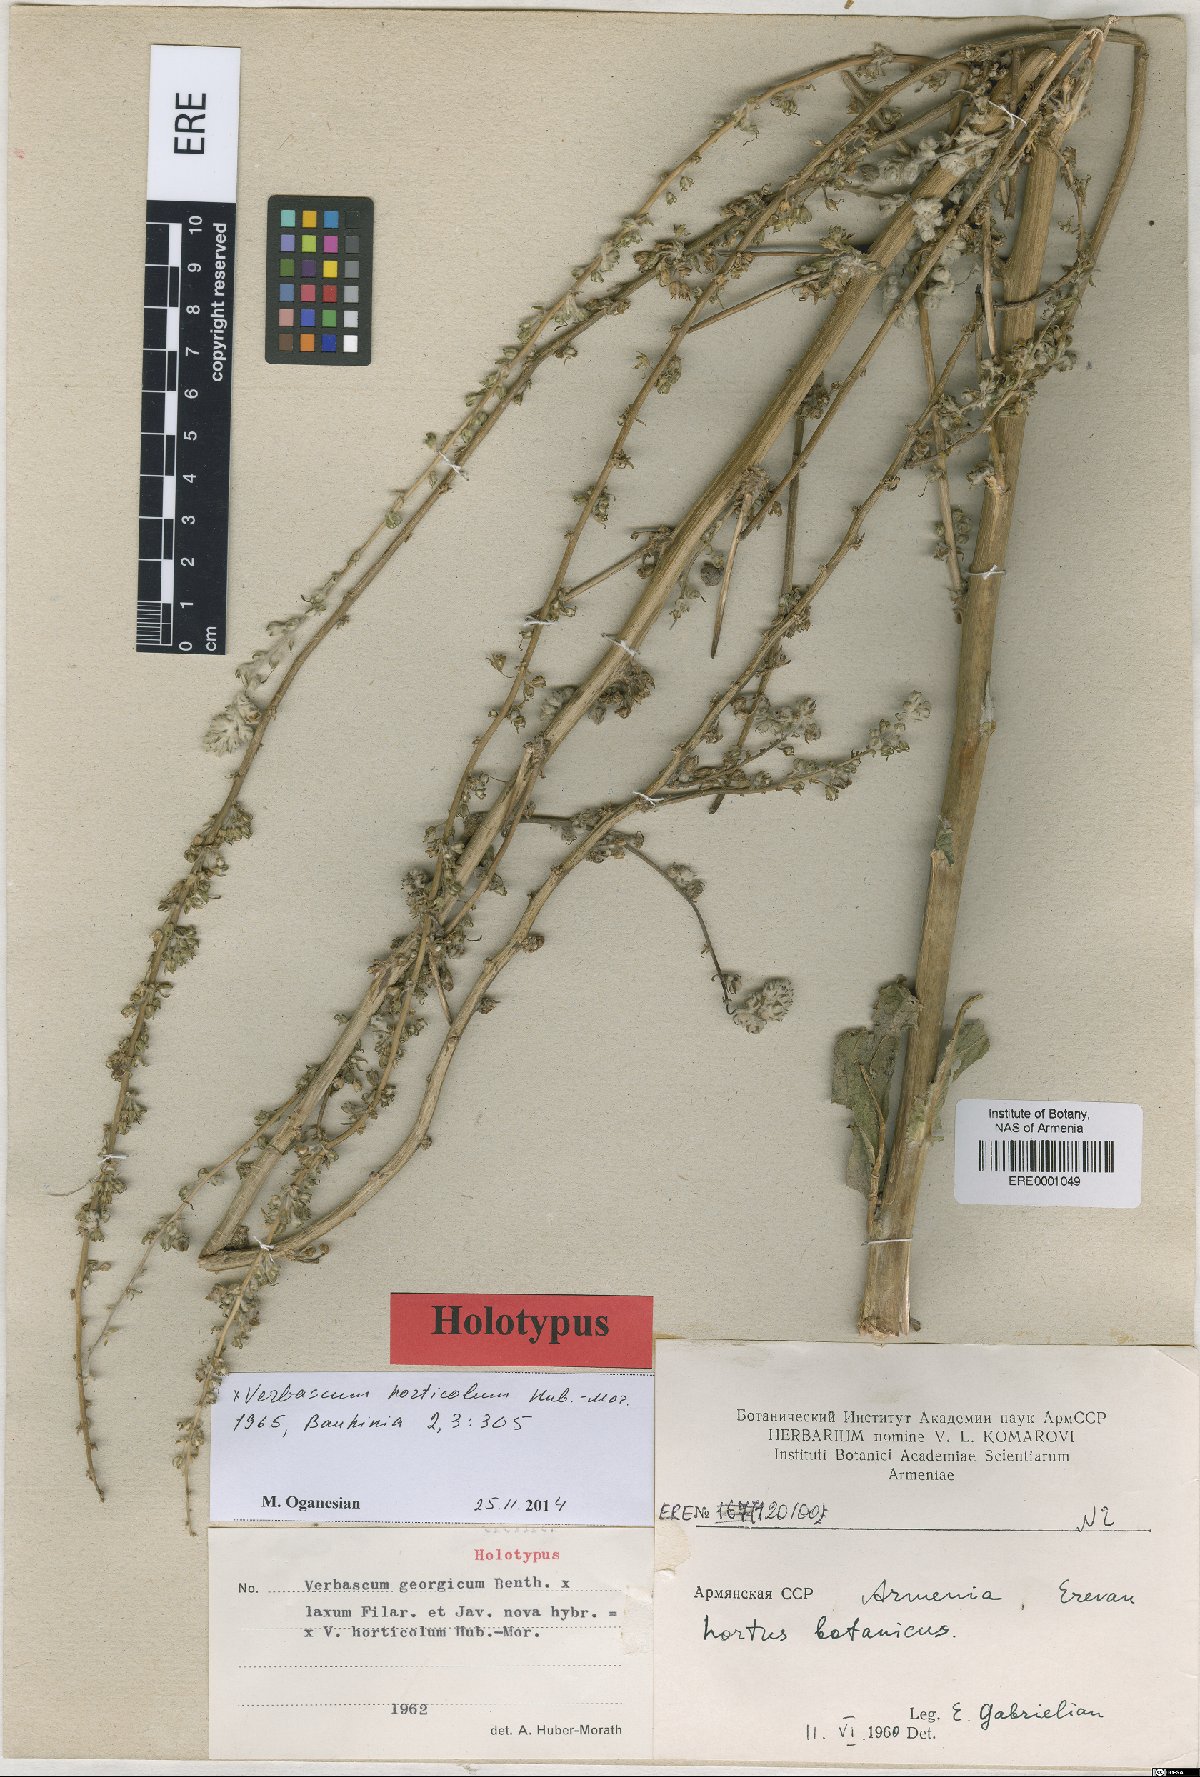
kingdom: Plantae
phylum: Tracheophyta
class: Magnoliopsida
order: Lamiales
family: Scrophulariaceae
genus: Verbascum
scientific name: Verbascum horticola
